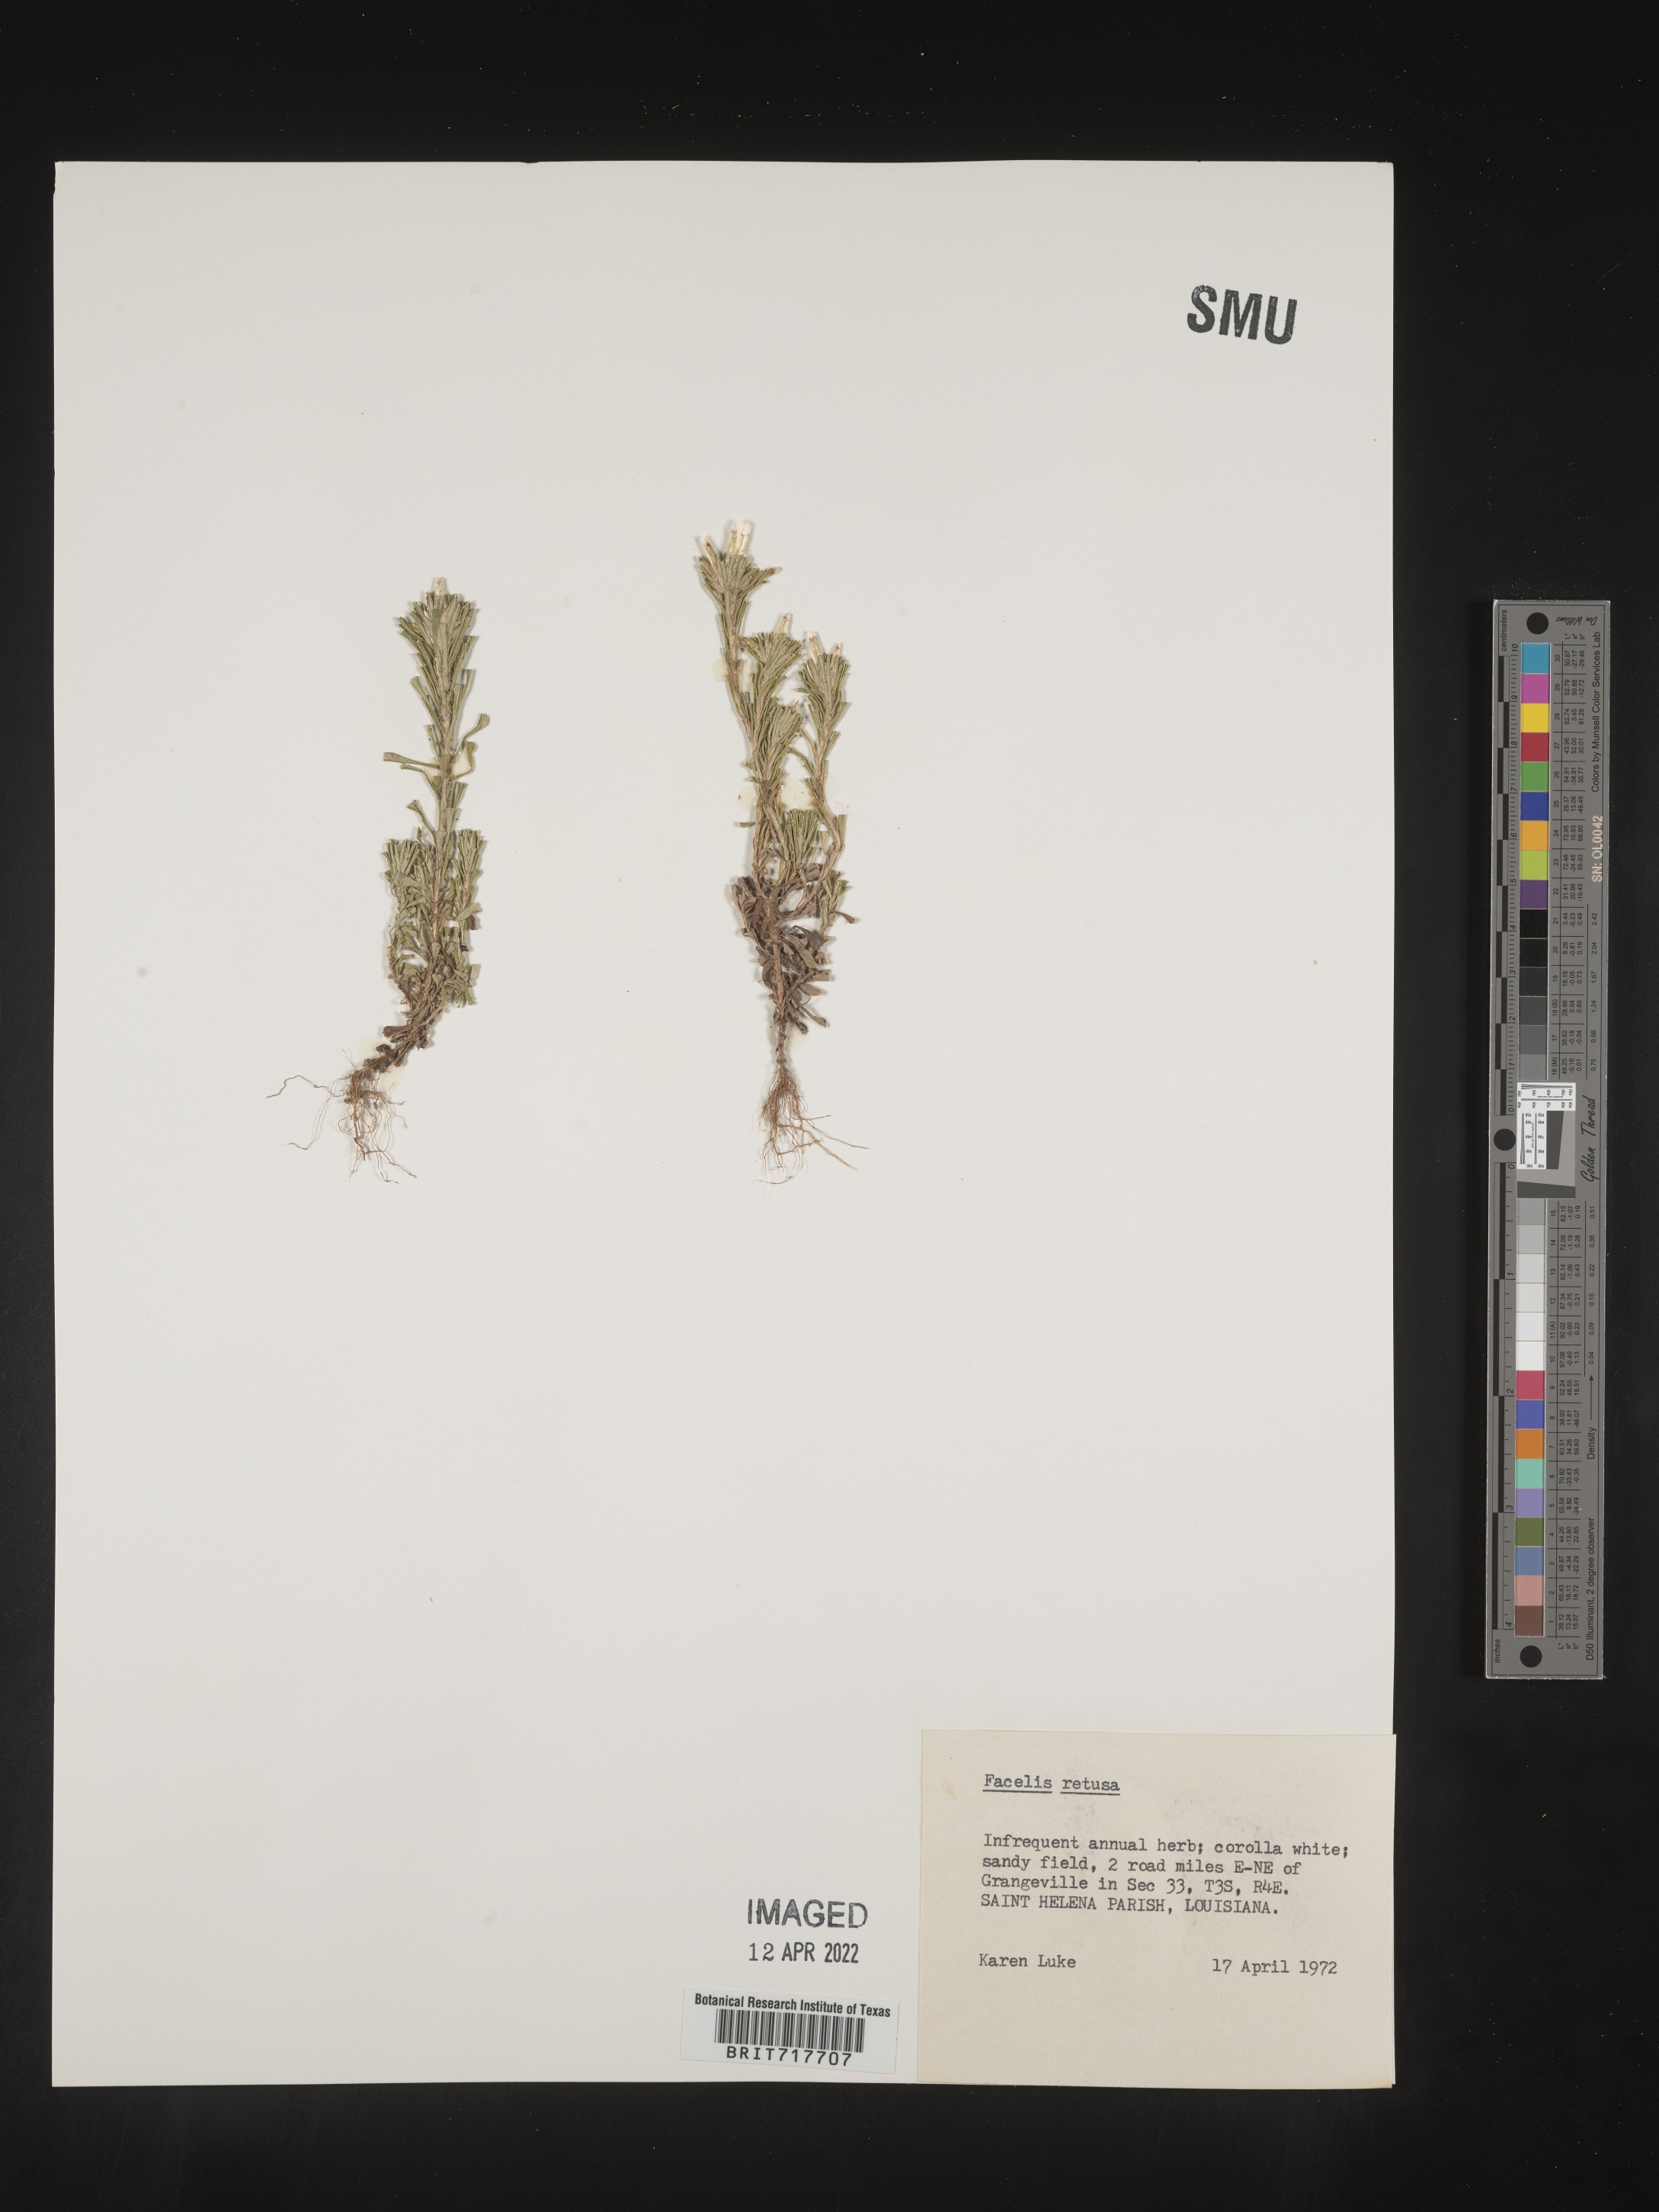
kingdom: Plantae
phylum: Tracheophyta
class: Magnoliopsida
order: Asterales
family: Asteraceae
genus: Facelis
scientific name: Facelis retusa
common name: Annual trampweed
